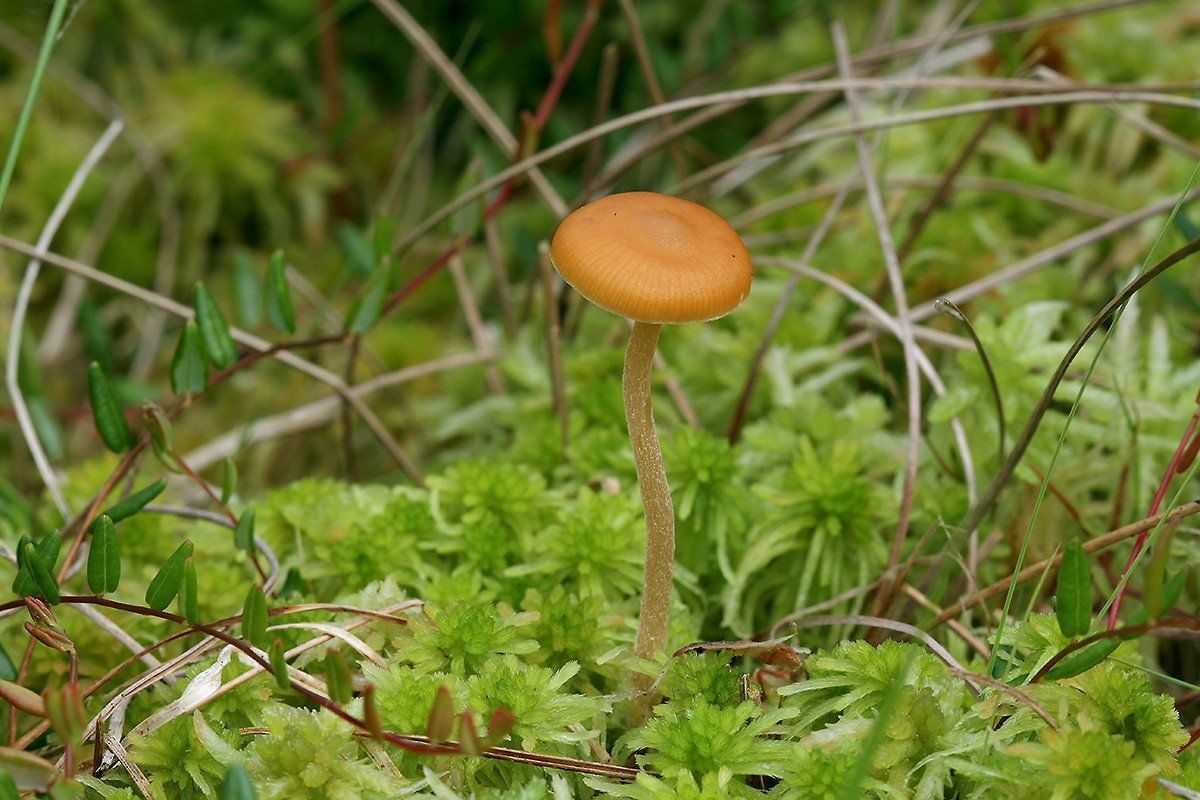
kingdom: Fungi
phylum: Basidiomycota
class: Agaricomycetes
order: Agaricales
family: Hymenogastraceae
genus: Galerina
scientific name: Galerina hybrida
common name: hængesæk-hjelmhat
